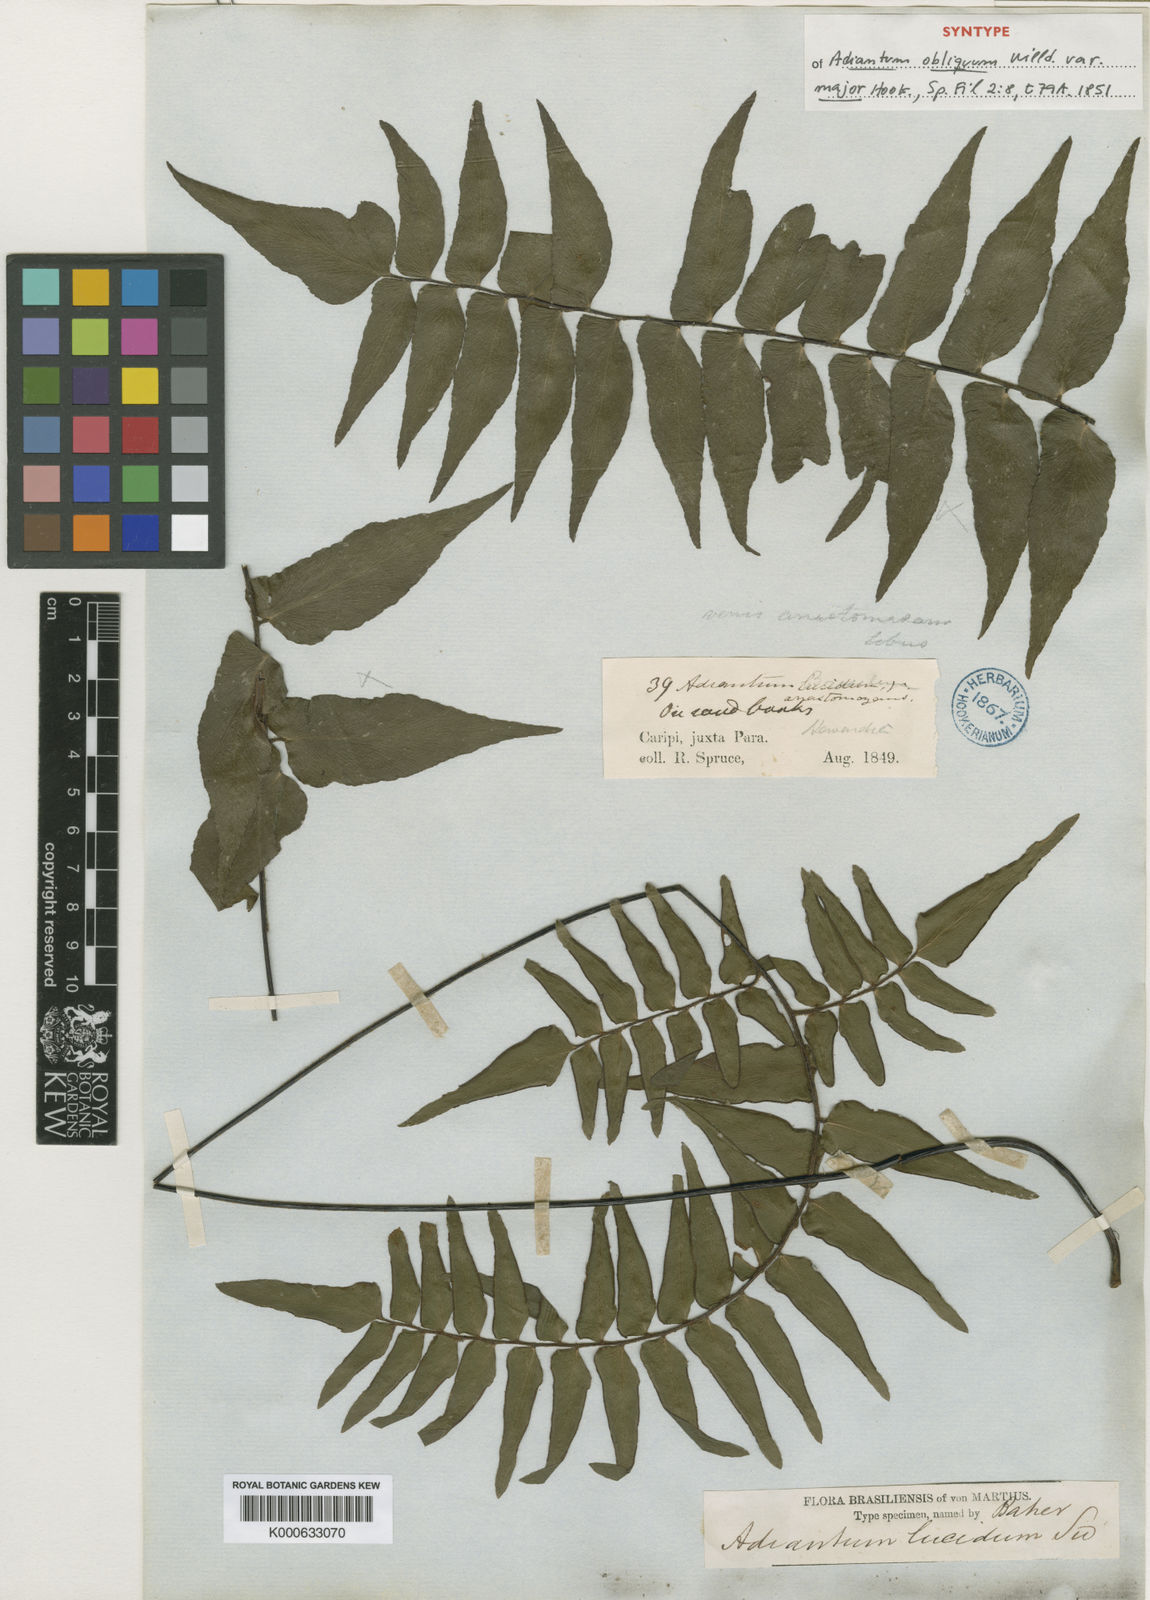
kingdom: Plantae
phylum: Tracheophyta
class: Polypodiopsida
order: Polypodiales
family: Pteridaceae
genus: Adiantum
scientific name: Adiantum obliquum
